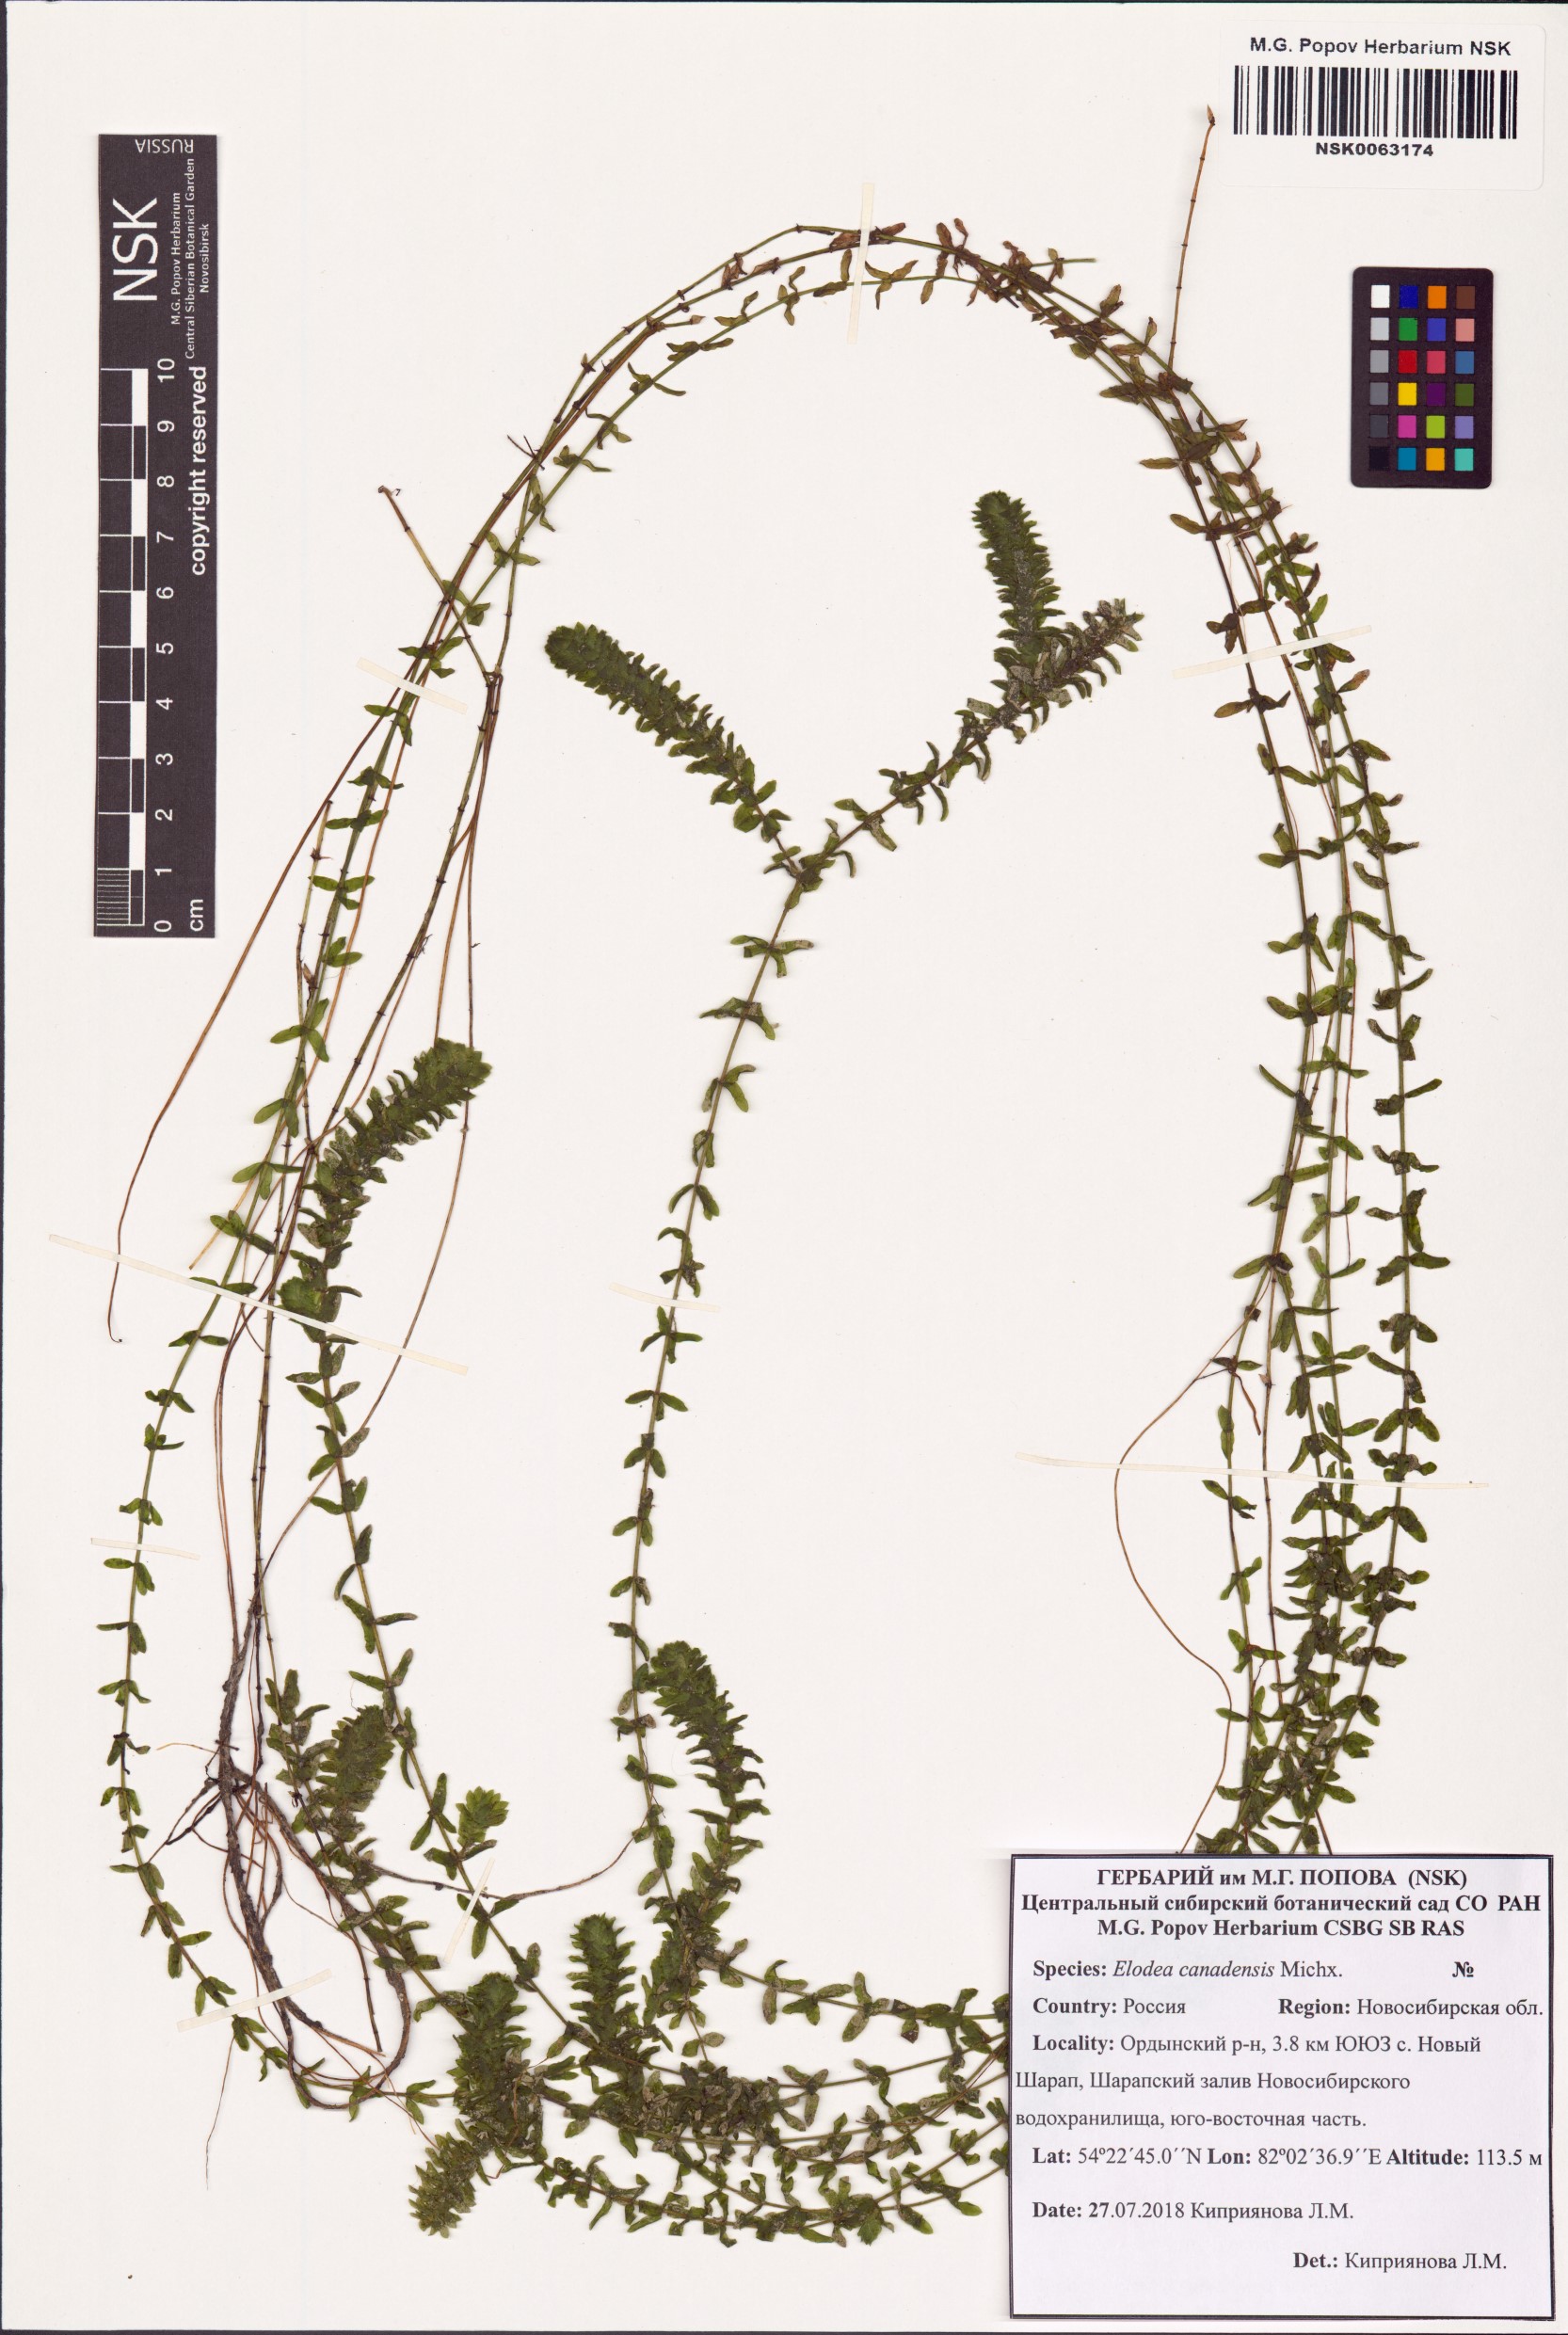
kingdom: Plantae
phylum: Tracheophyta
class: Liliopsida
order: Alismatales
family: Hydrocharitaceae
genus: Elodea
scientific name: Elodea canadensis
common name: Canadian waterweed
